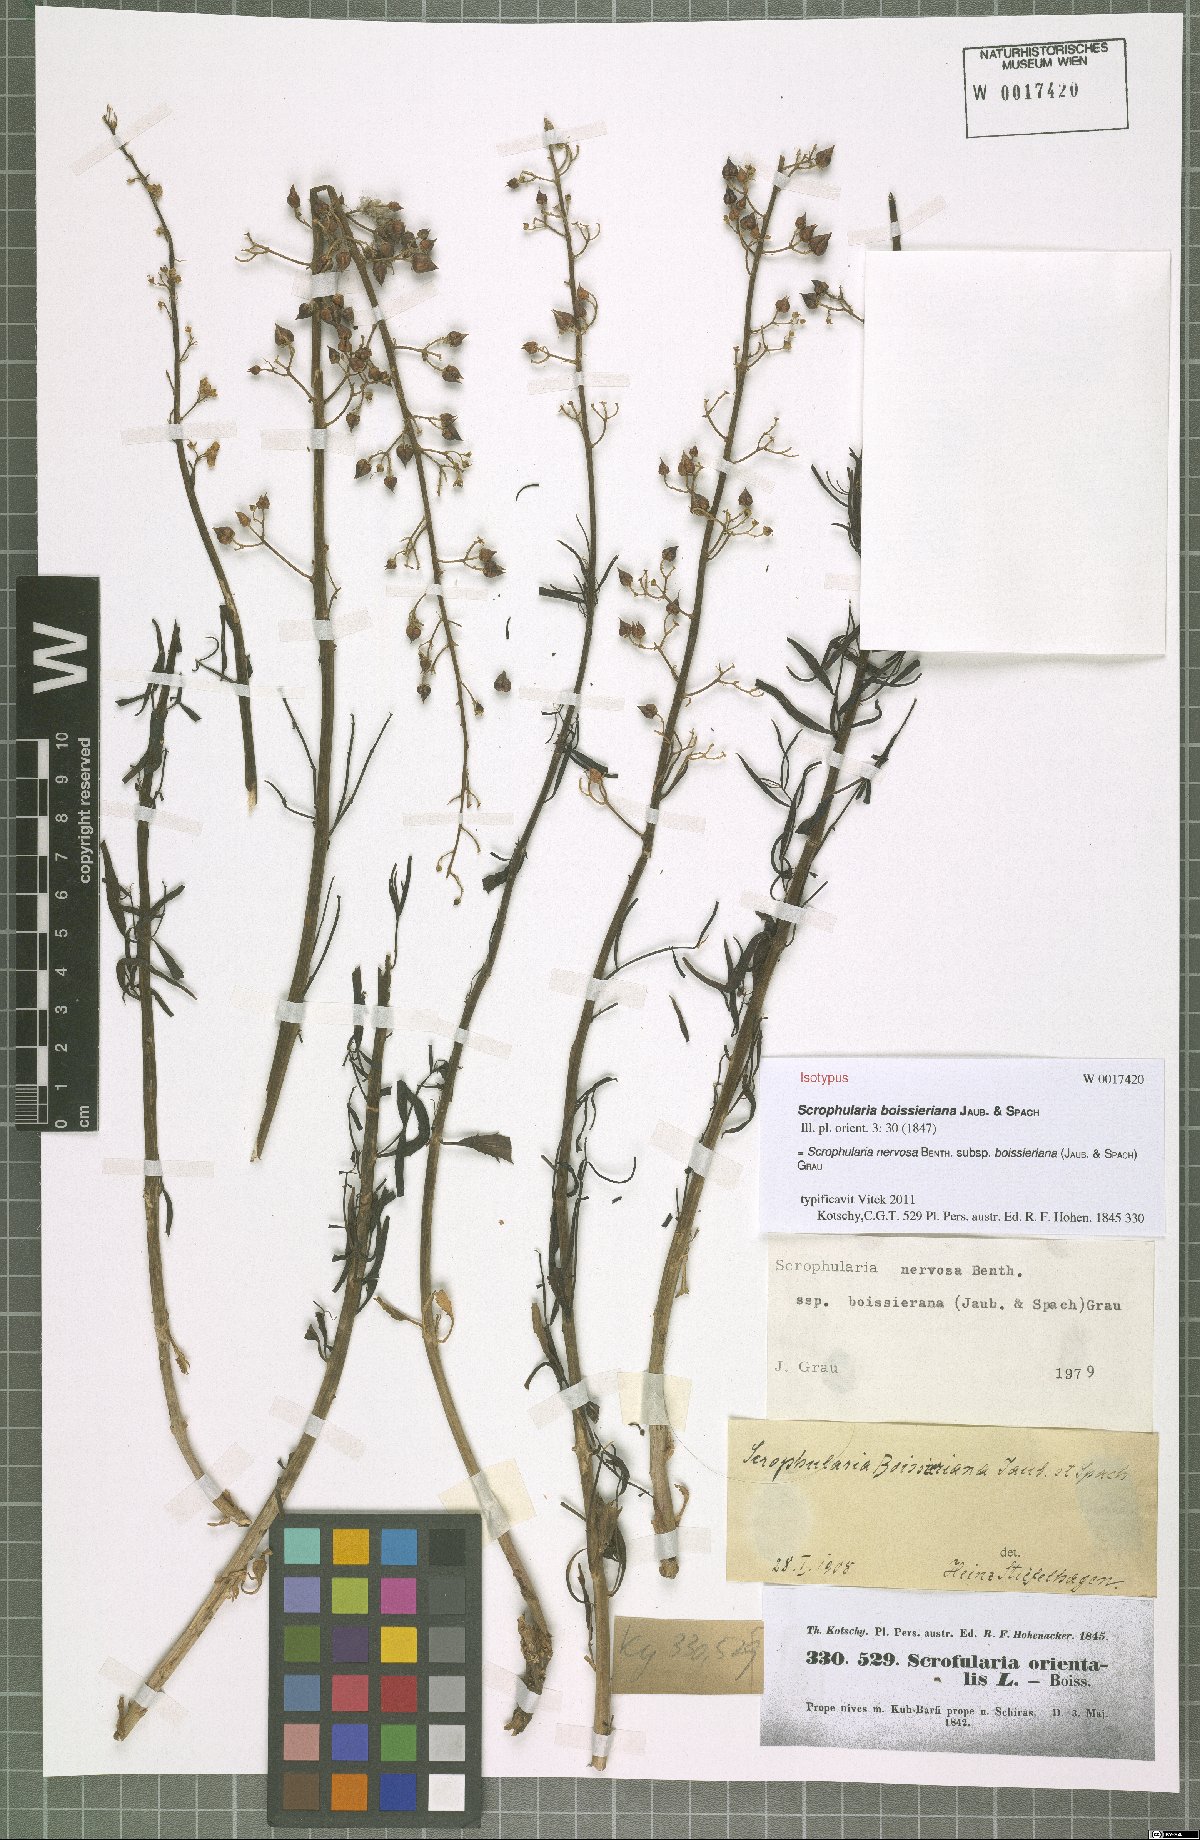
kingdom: Plantae
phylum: Tracheophyta
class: Magnoliopsida
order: Lamiales
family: Scrophulariaceae
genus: Scrophularia
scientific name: Scrophularia nervosa
